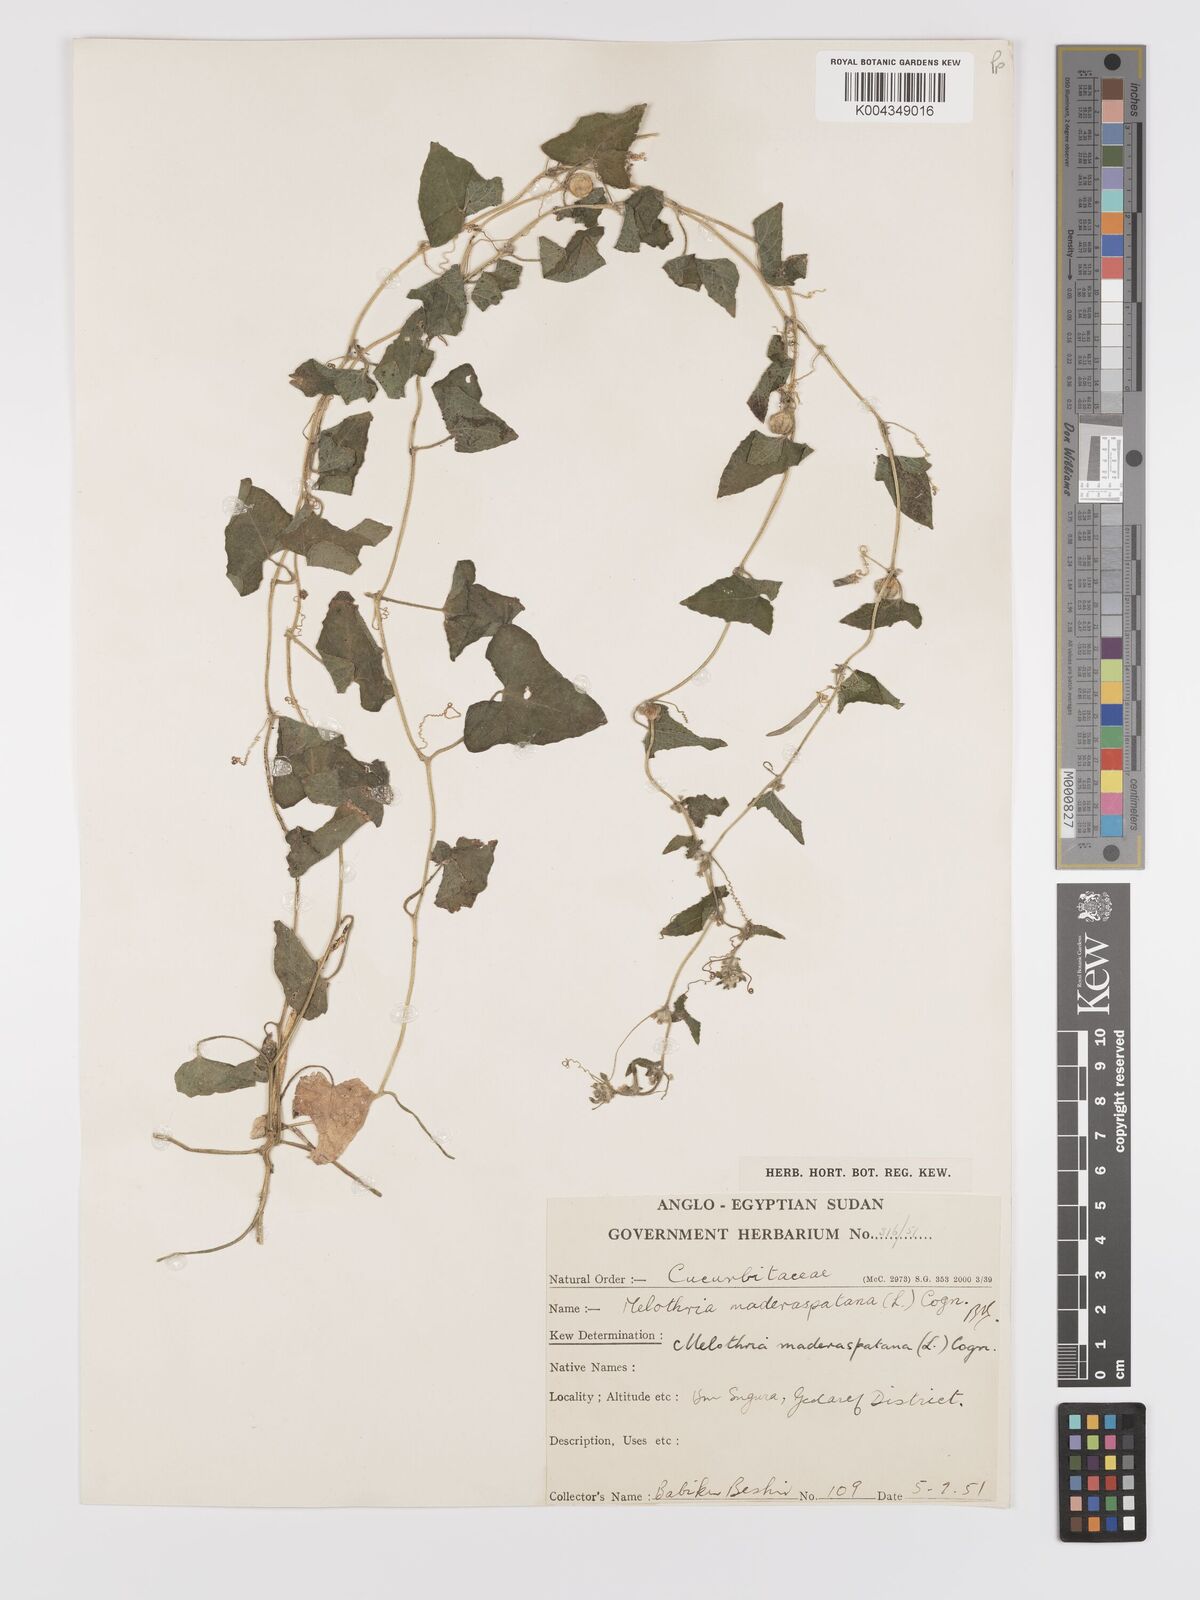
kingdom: Plantae
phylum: Tracheophyta
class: Magnoliopsida
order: Cucurbitales
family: Cucurbitaceae
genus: Cucumis
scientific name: Cucumis maderaspatanus
